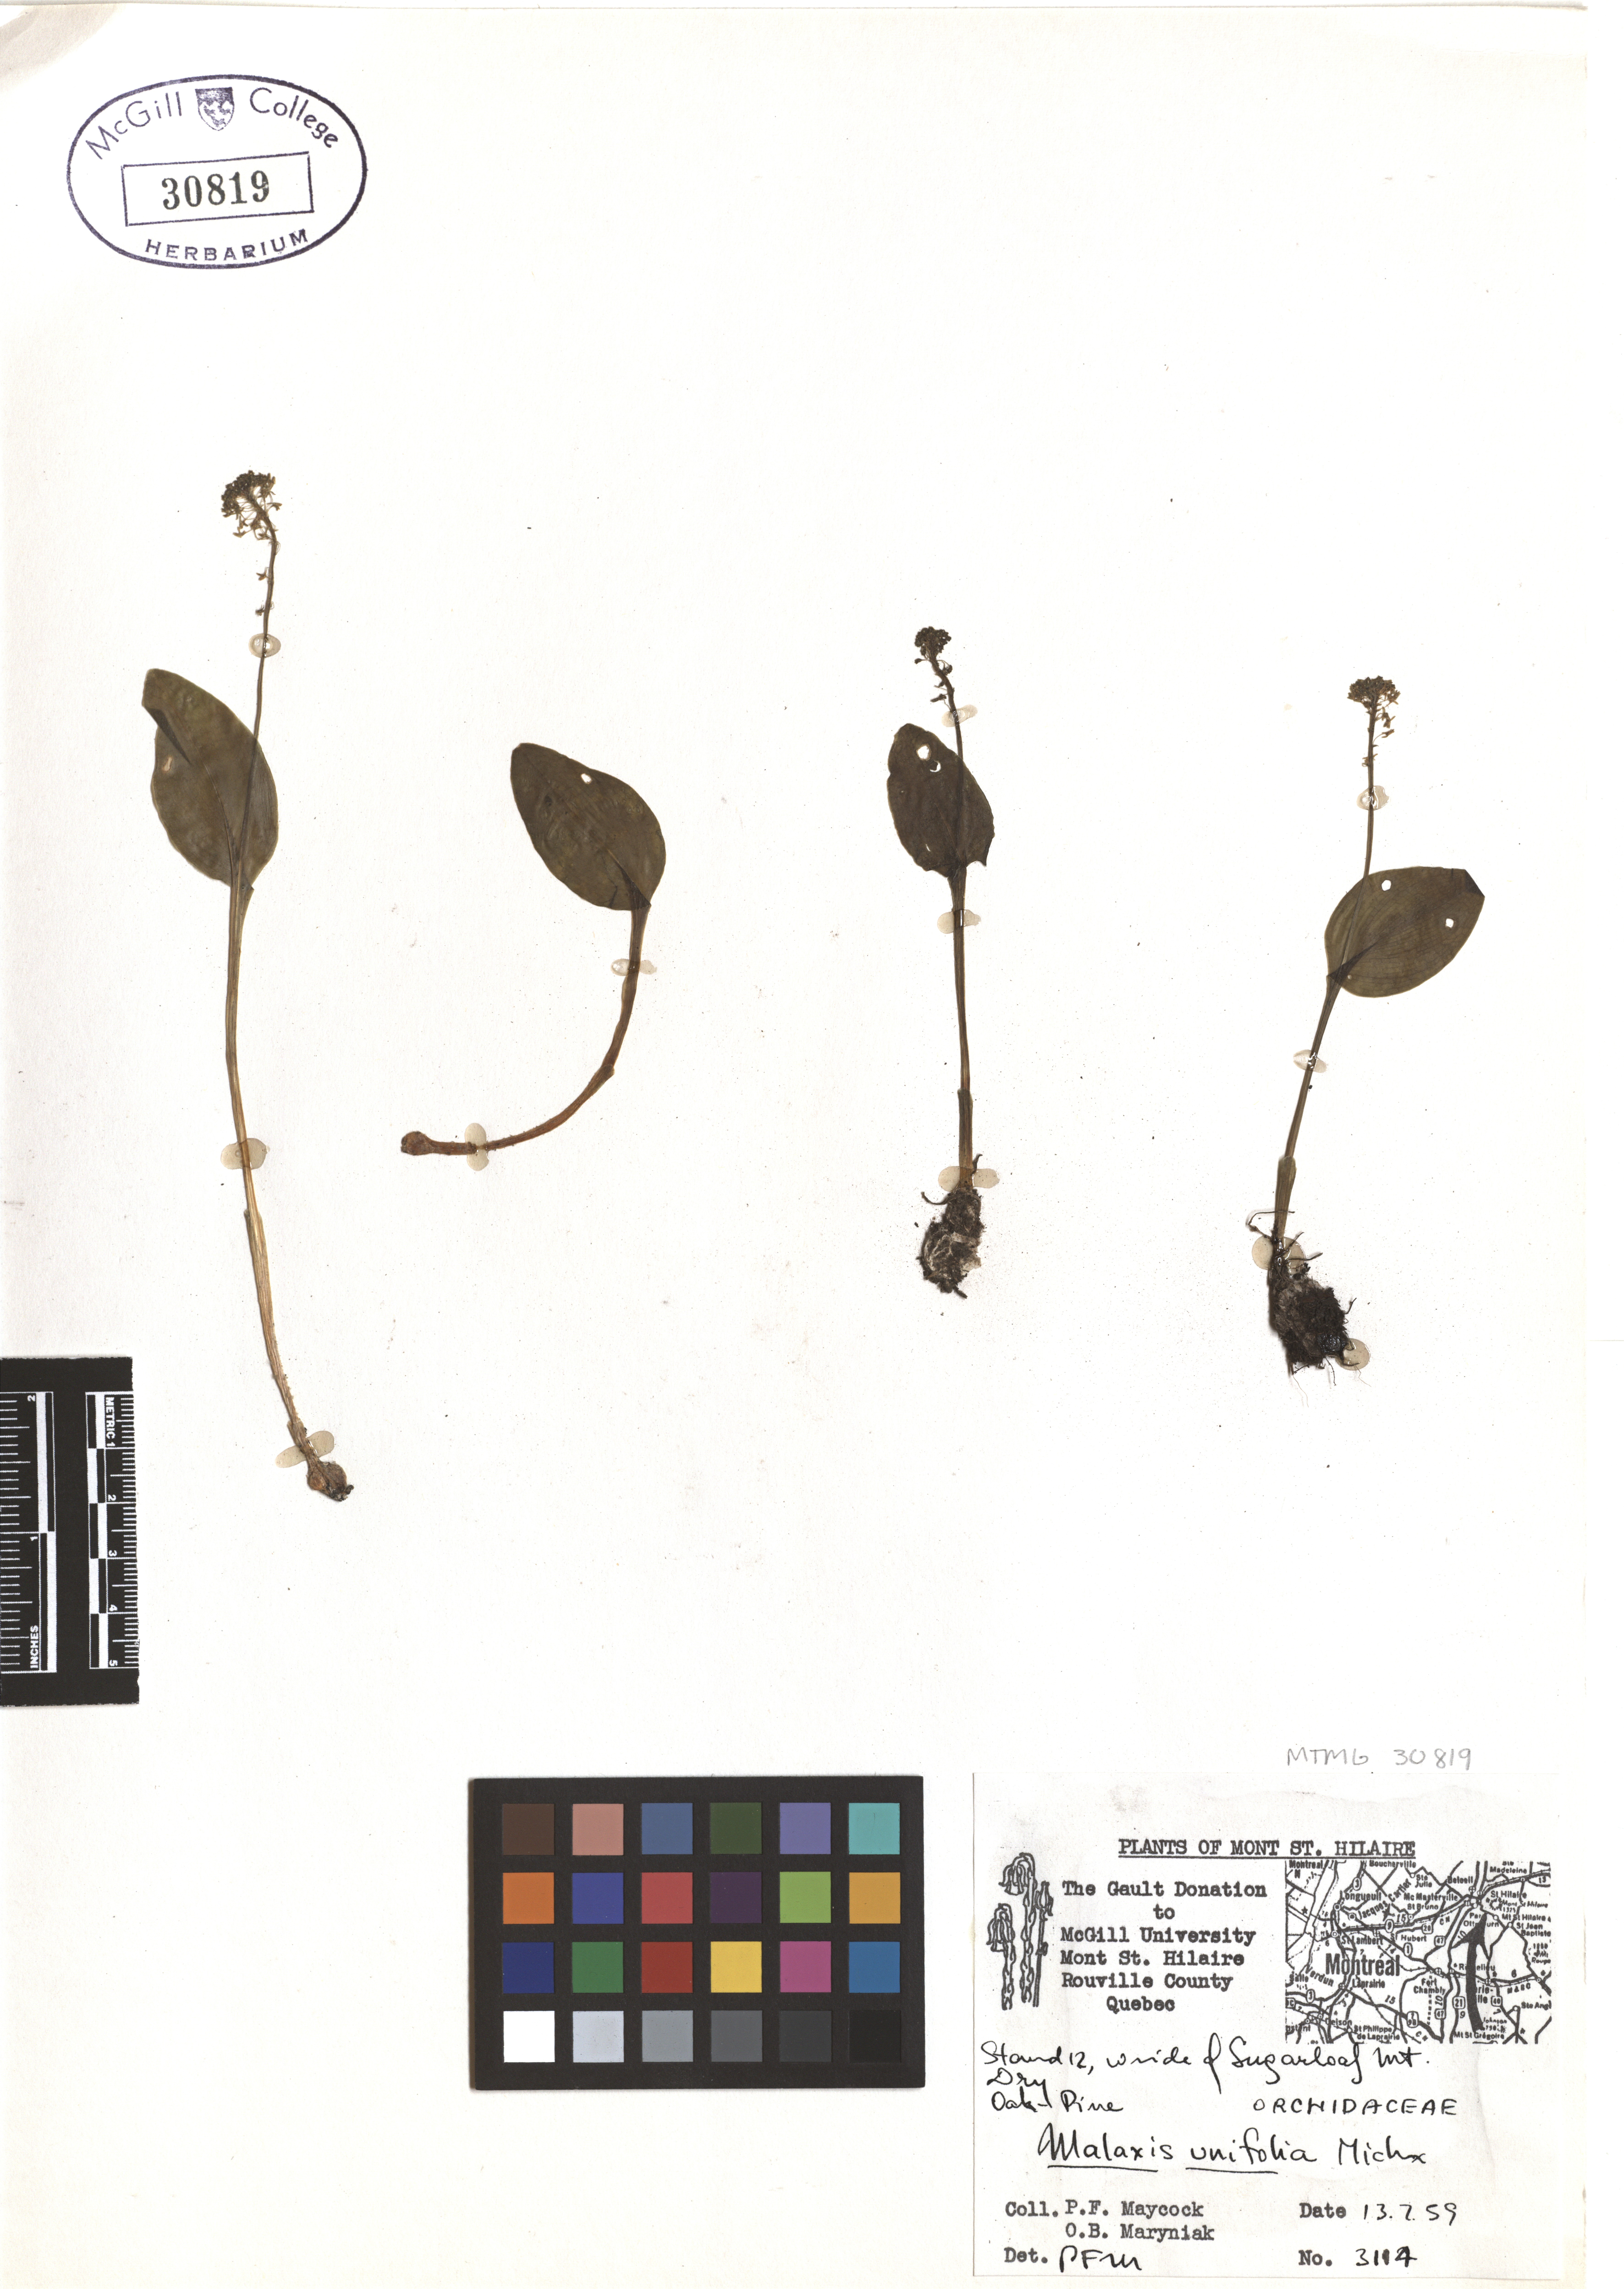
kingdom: Plantae
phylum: Tracheophyta
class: Liliopsida
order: Asparagales
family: Orchidaceae
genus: Malaxis
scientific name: Malaxis unifolia
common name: Green adder's-mouth
